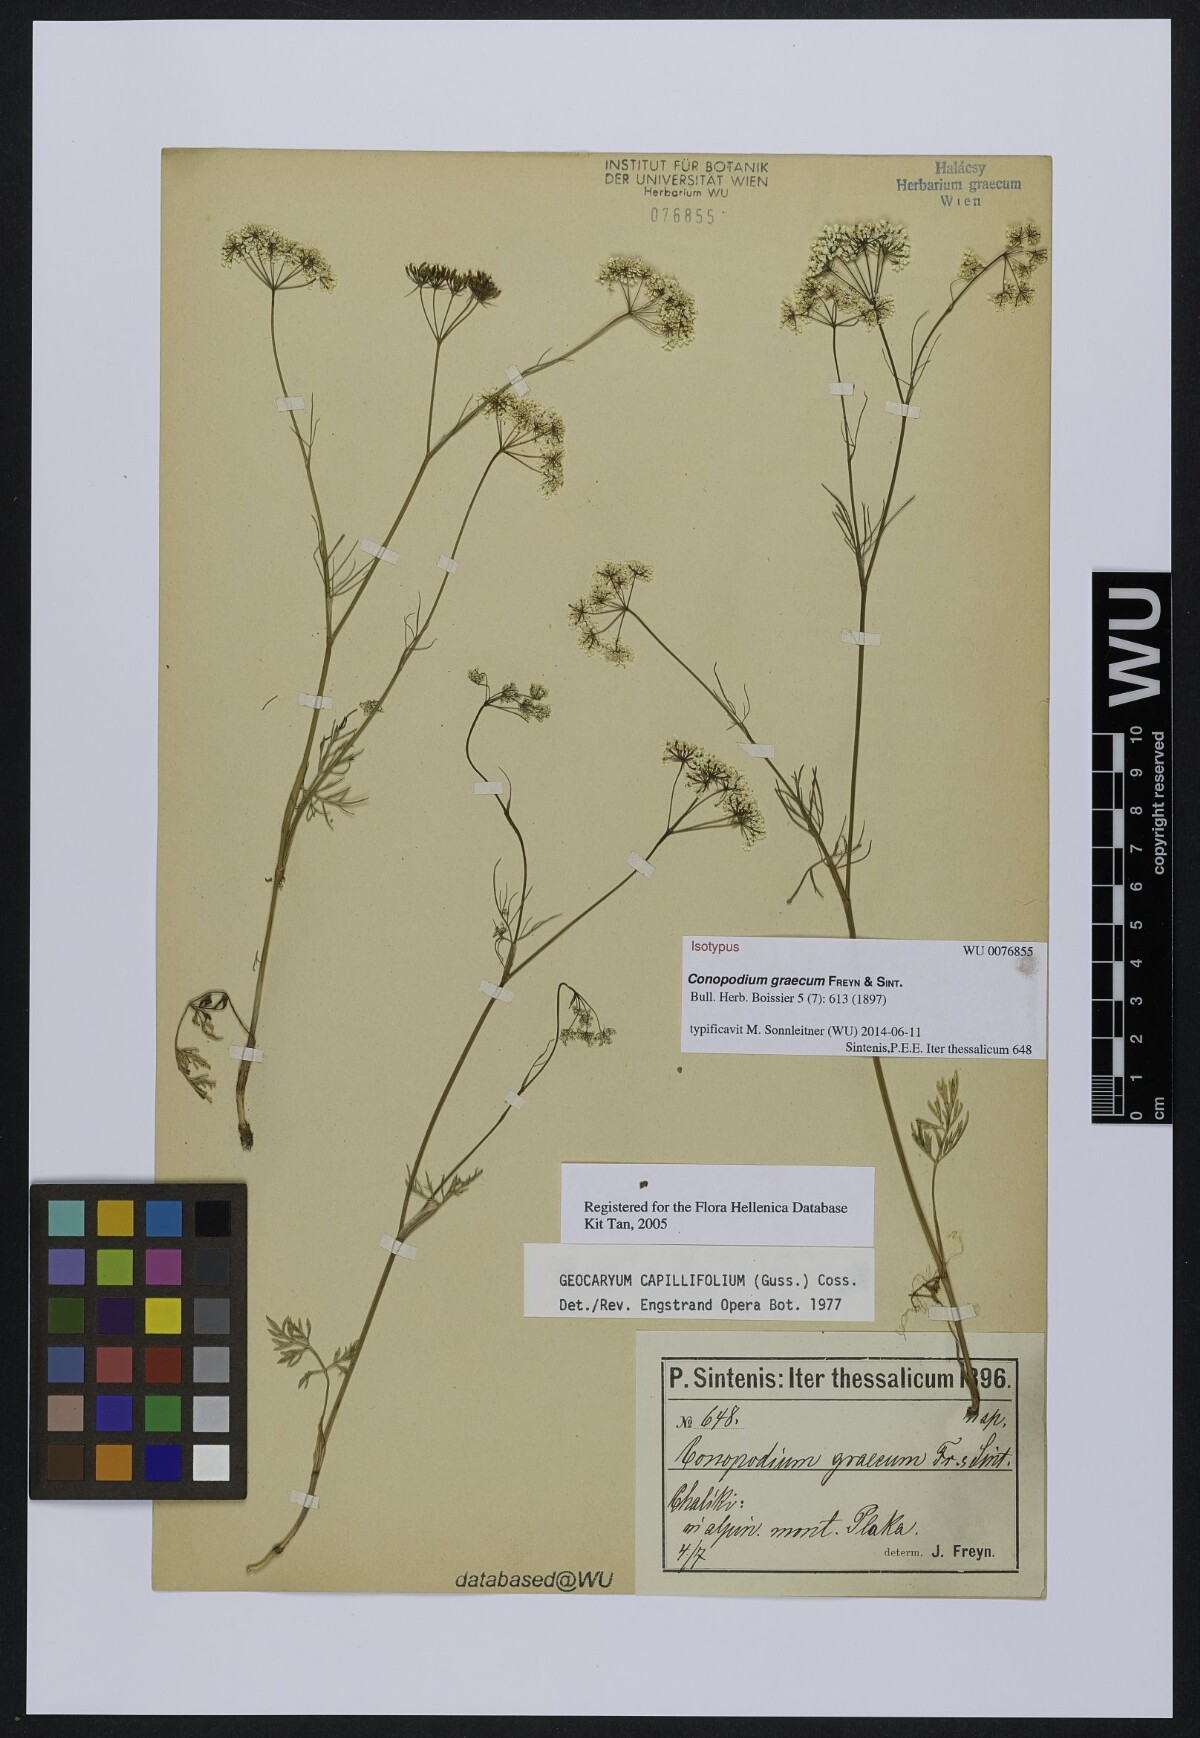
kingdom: Plantae
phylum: Tracheophyta
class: Magnoliopsida
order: Apiales
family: Apiaceae
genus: Geocaryum
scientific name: Geocaryum capillifolium
